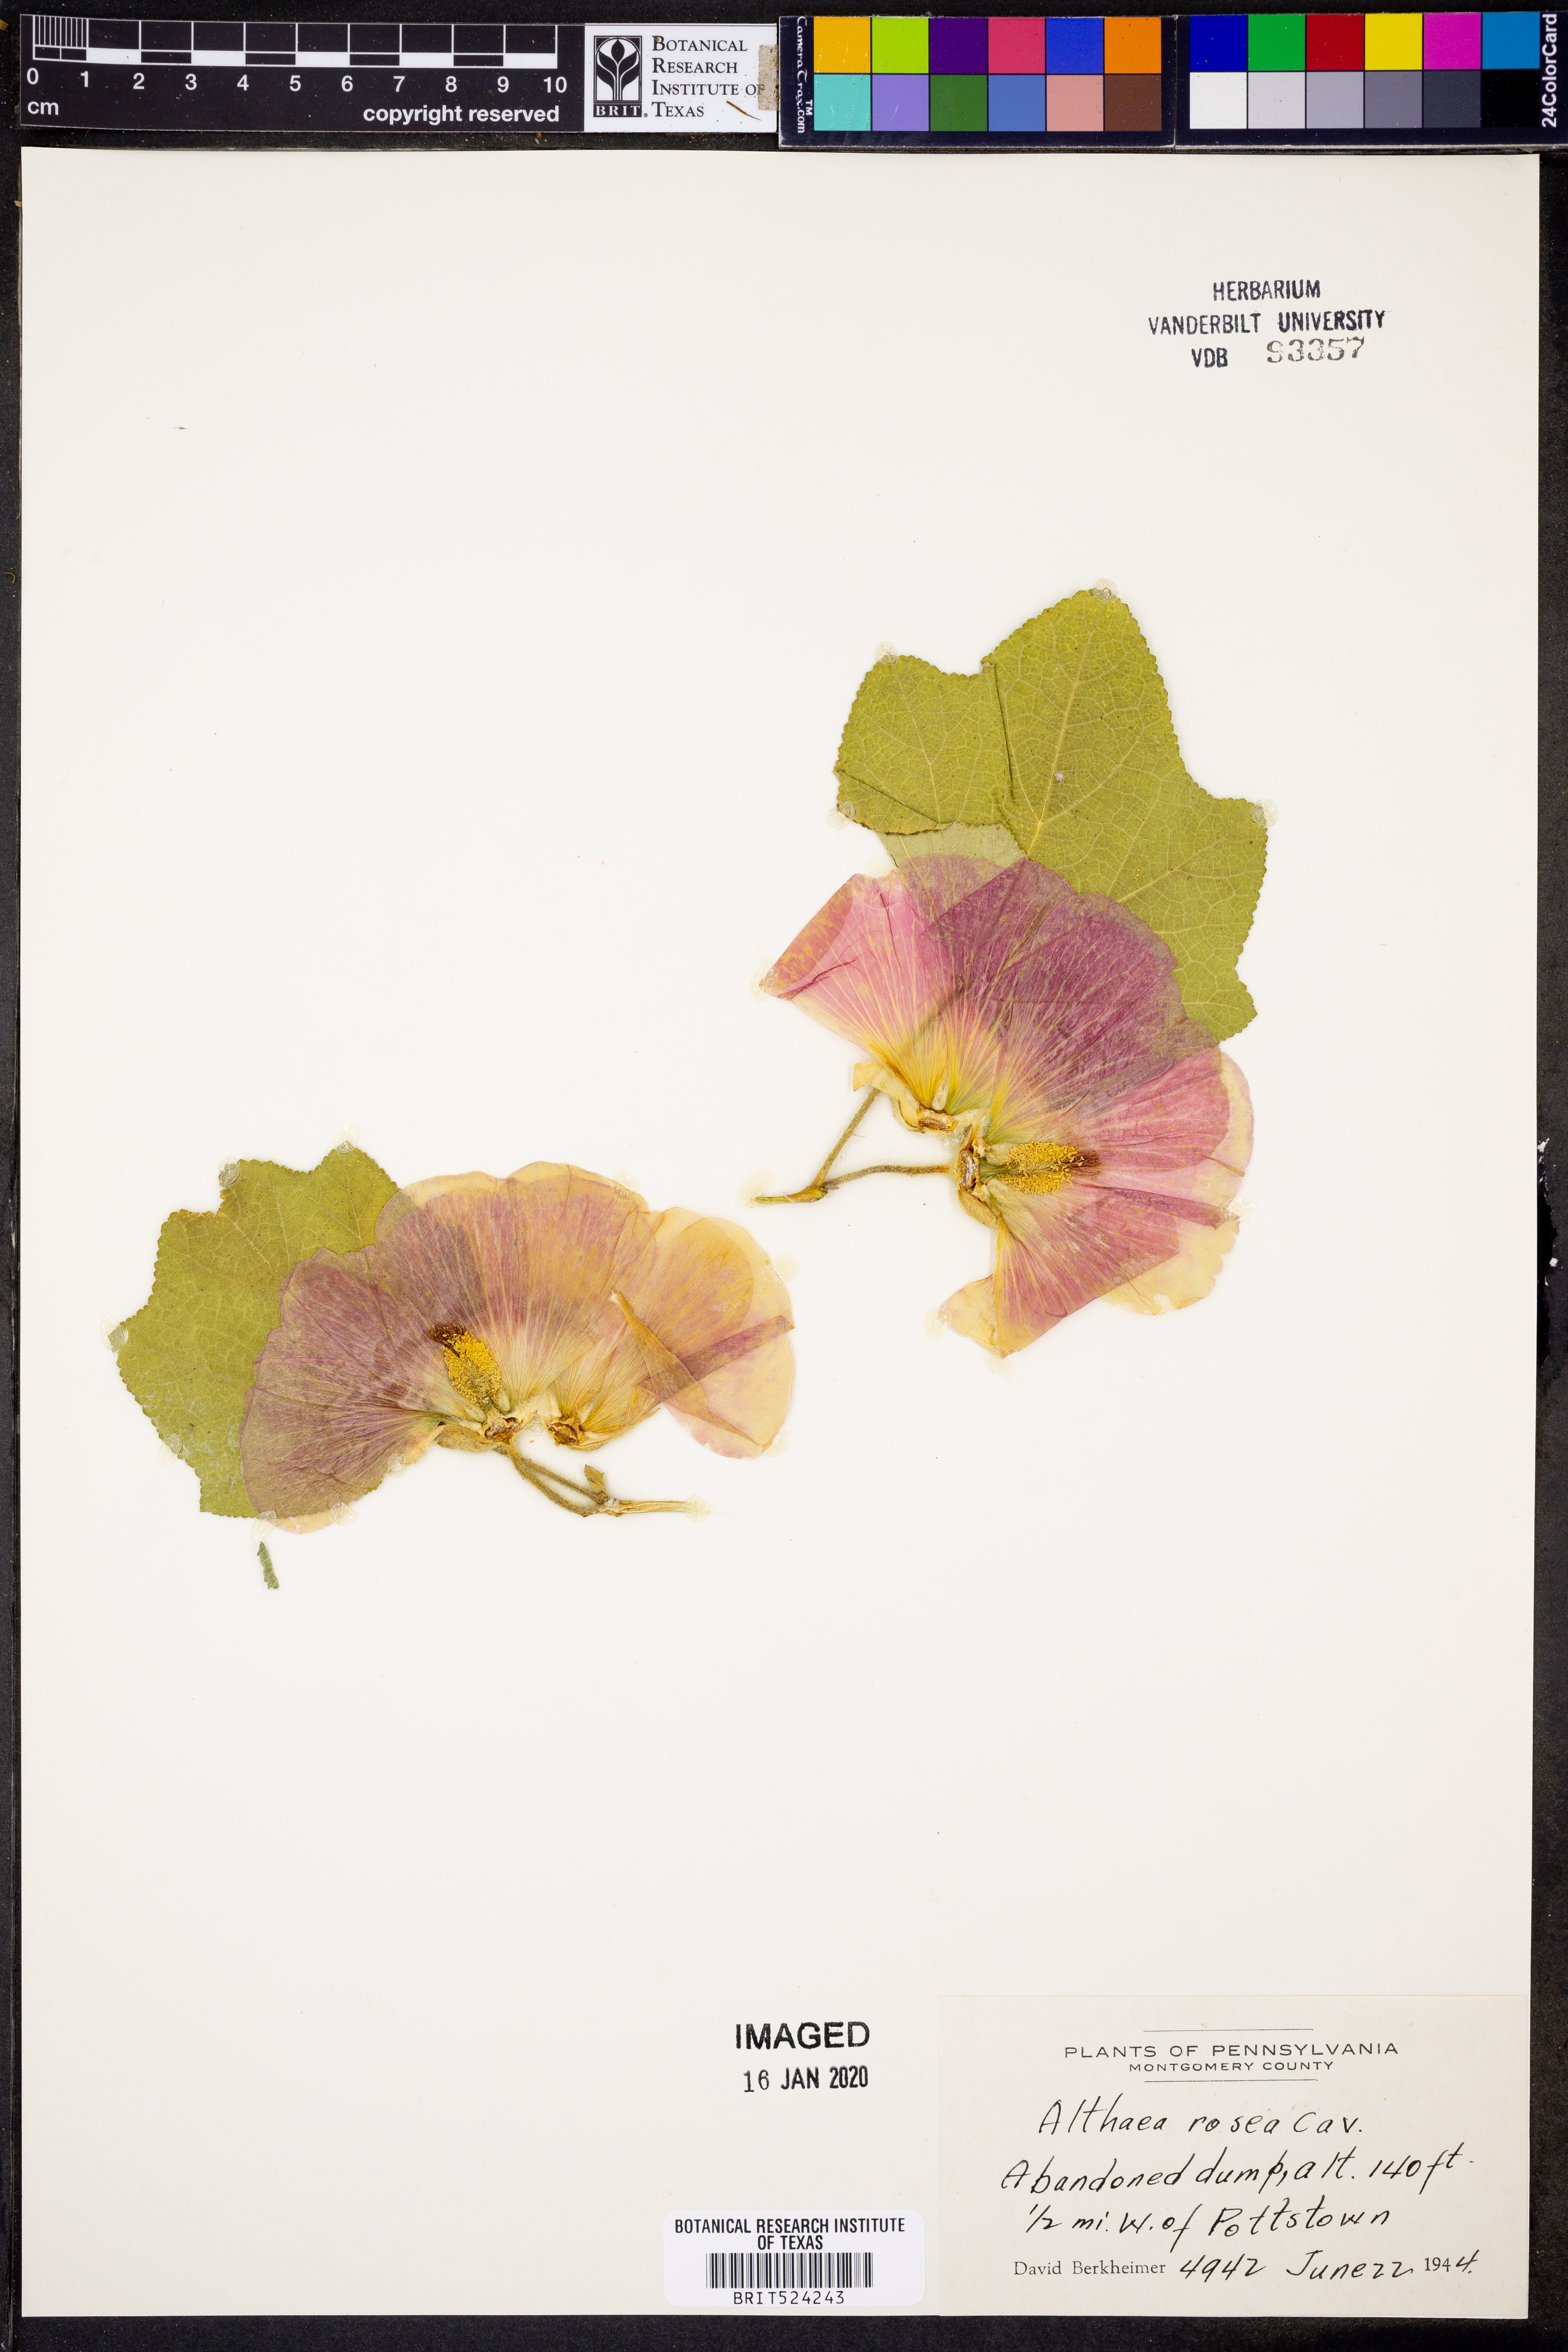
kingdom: Plantae
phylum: Tracheophyta
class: Magnoliopsida
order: Malvales
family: Malvaceae
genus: Alcea
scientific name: Alcea rosea
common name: Hollyhock
